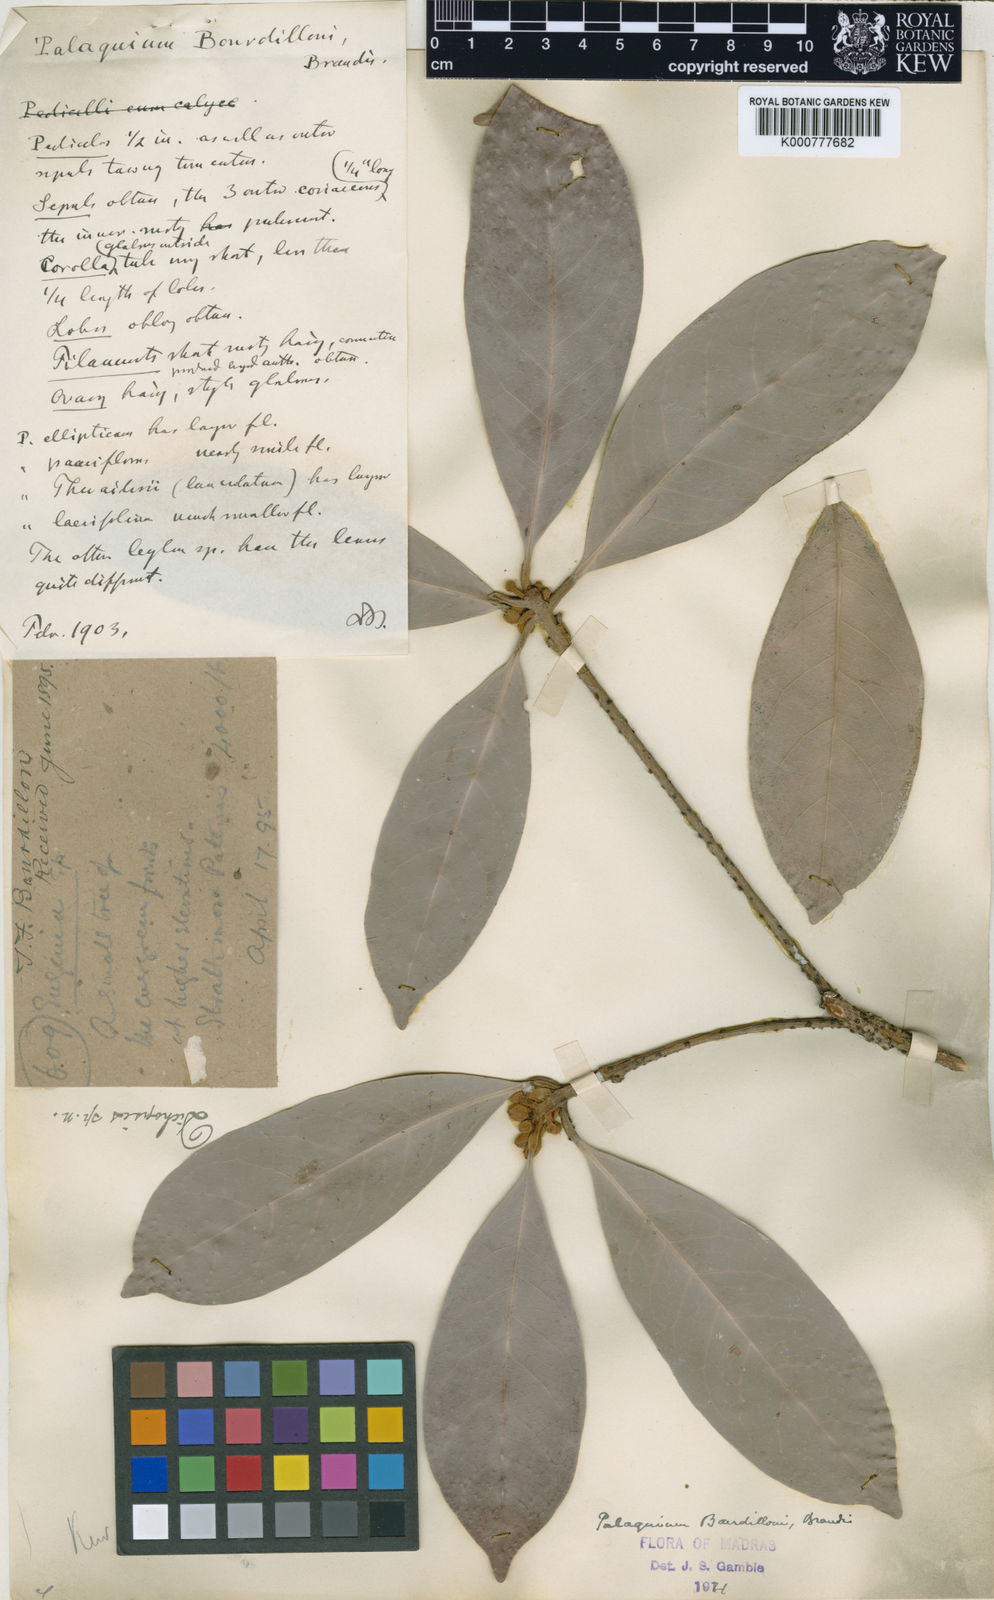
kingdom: Plantae
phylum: Tracheophyta
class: Magnoliopsida
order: Ericales
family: Sapotaceae
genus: Palaquium
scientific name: Palaquium bourdillonii
